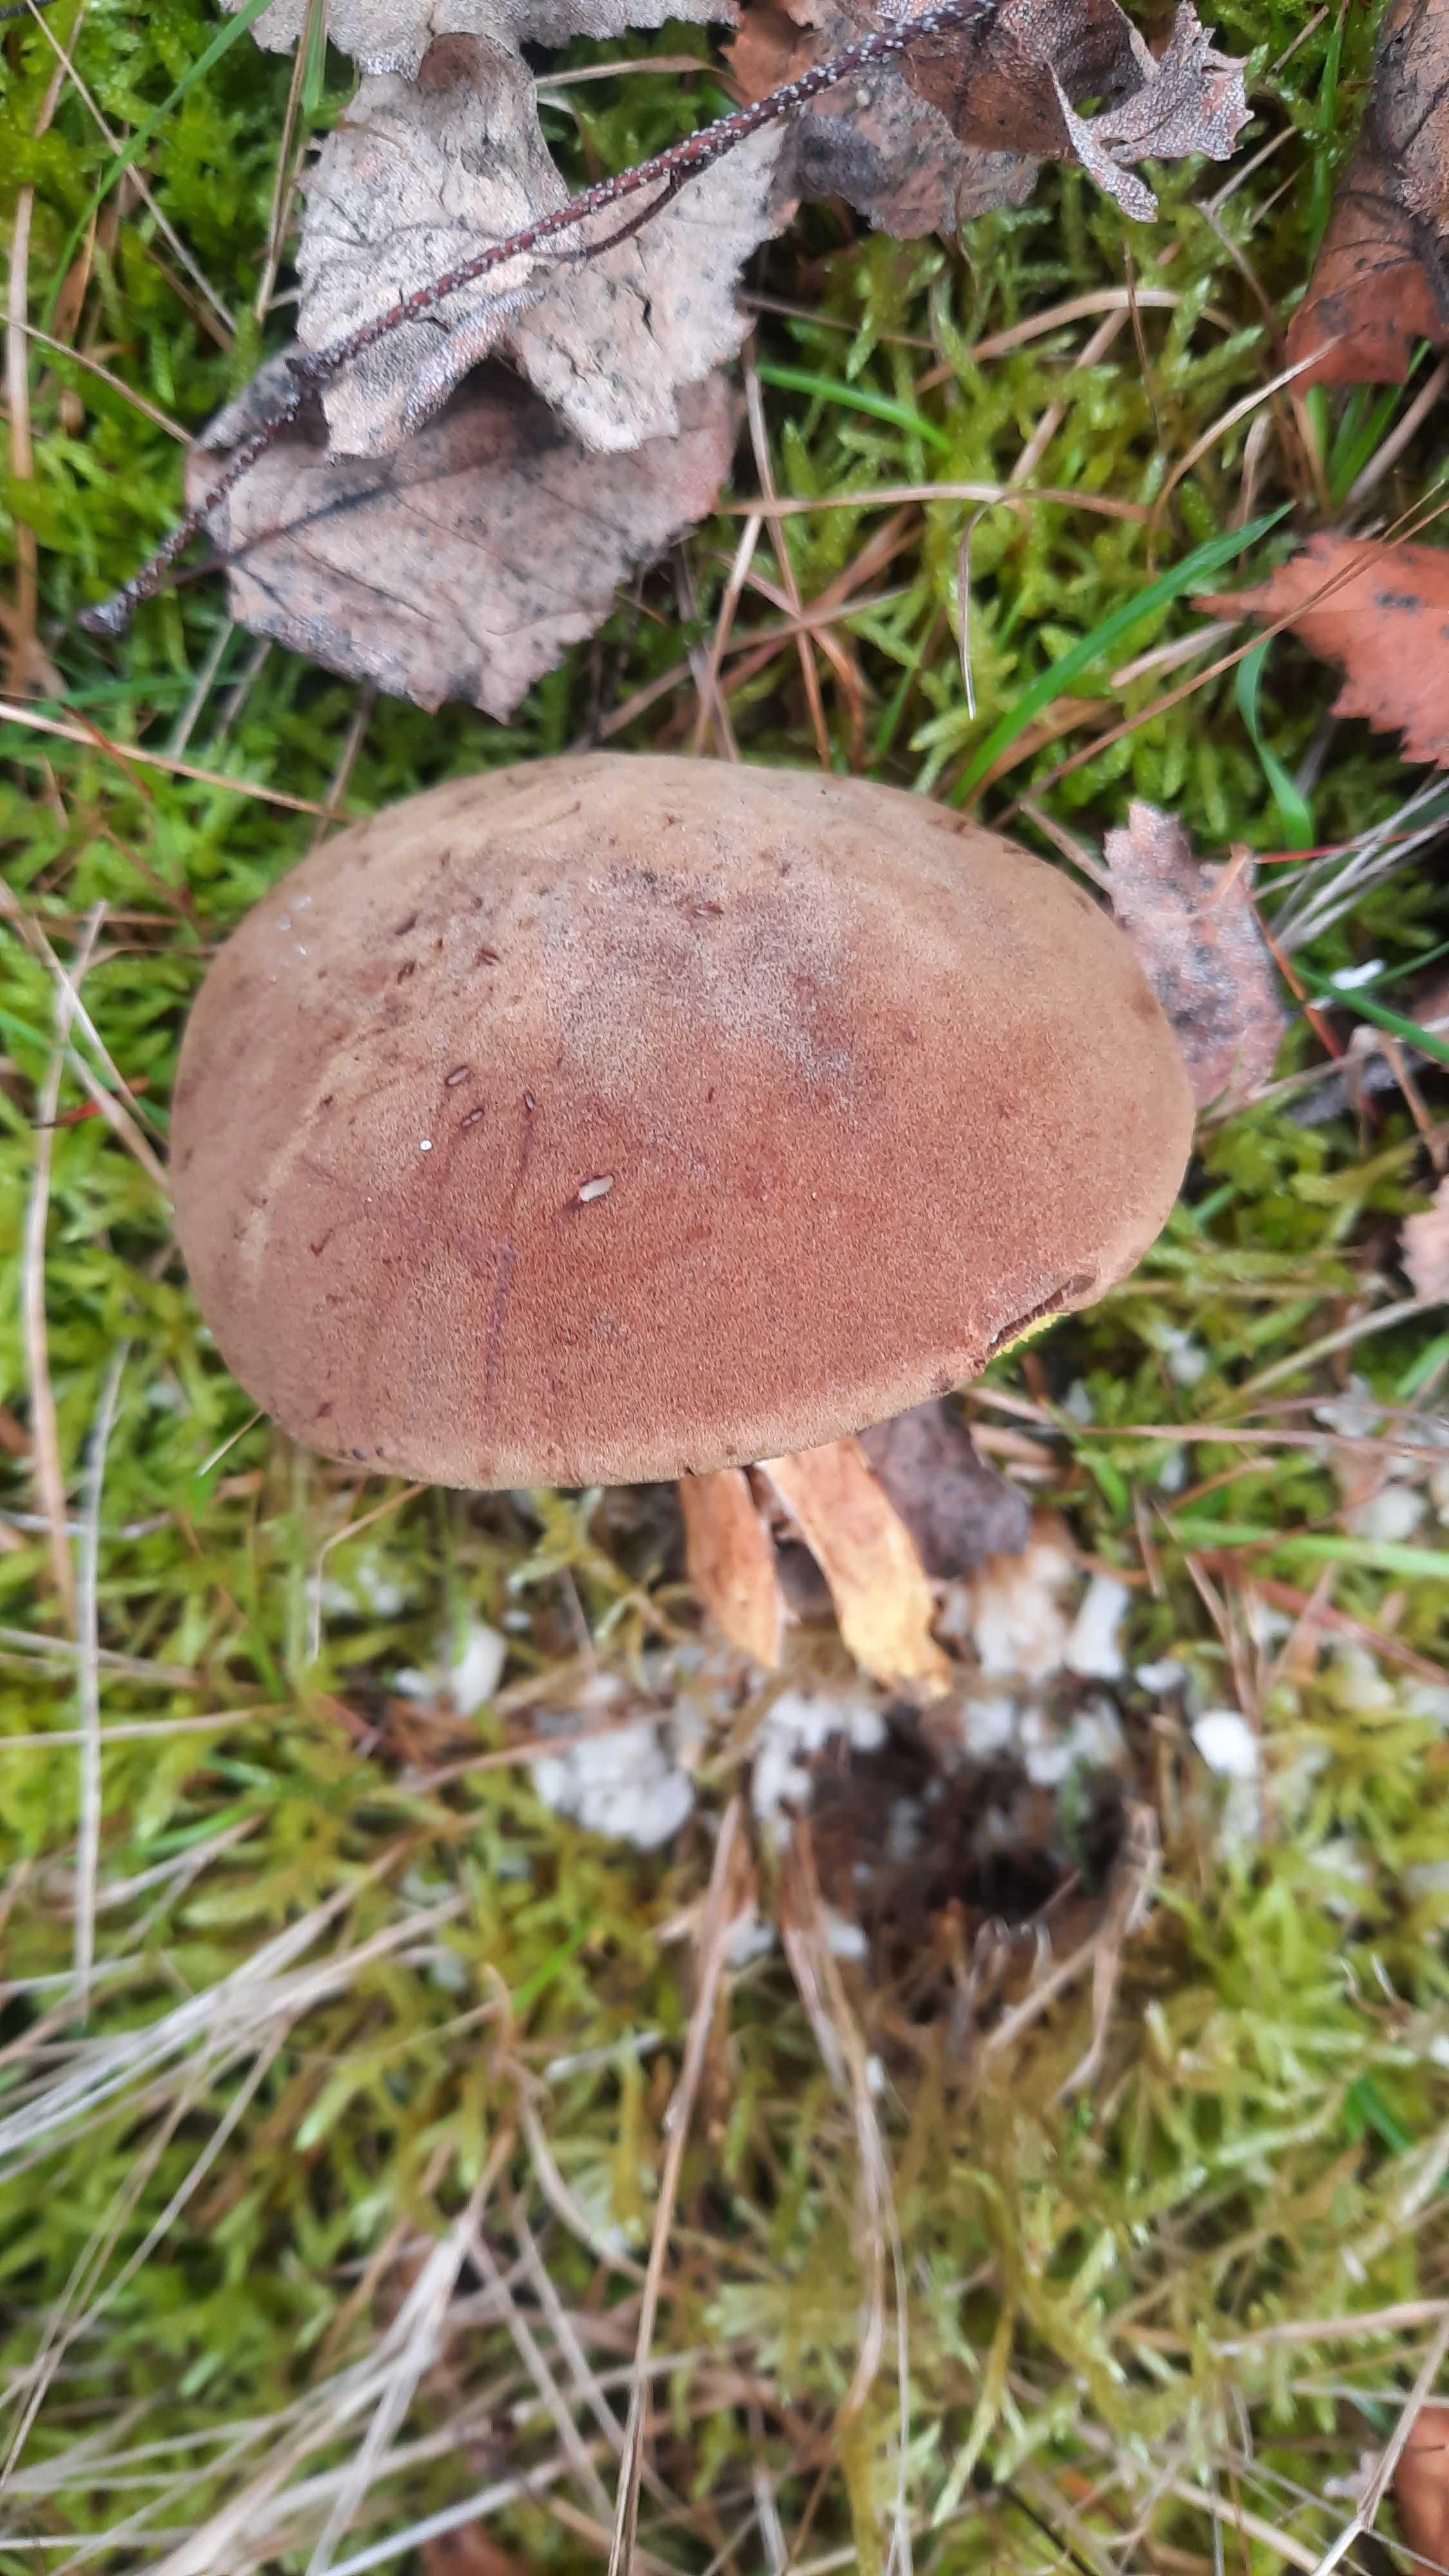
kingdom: Fungi
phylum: Basidiomycota
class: Agaricomycetes
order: Boletales
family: Boletaceae
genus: Xerocomus
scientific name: Xerocomus subtomentosus
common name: filtet rørhat
